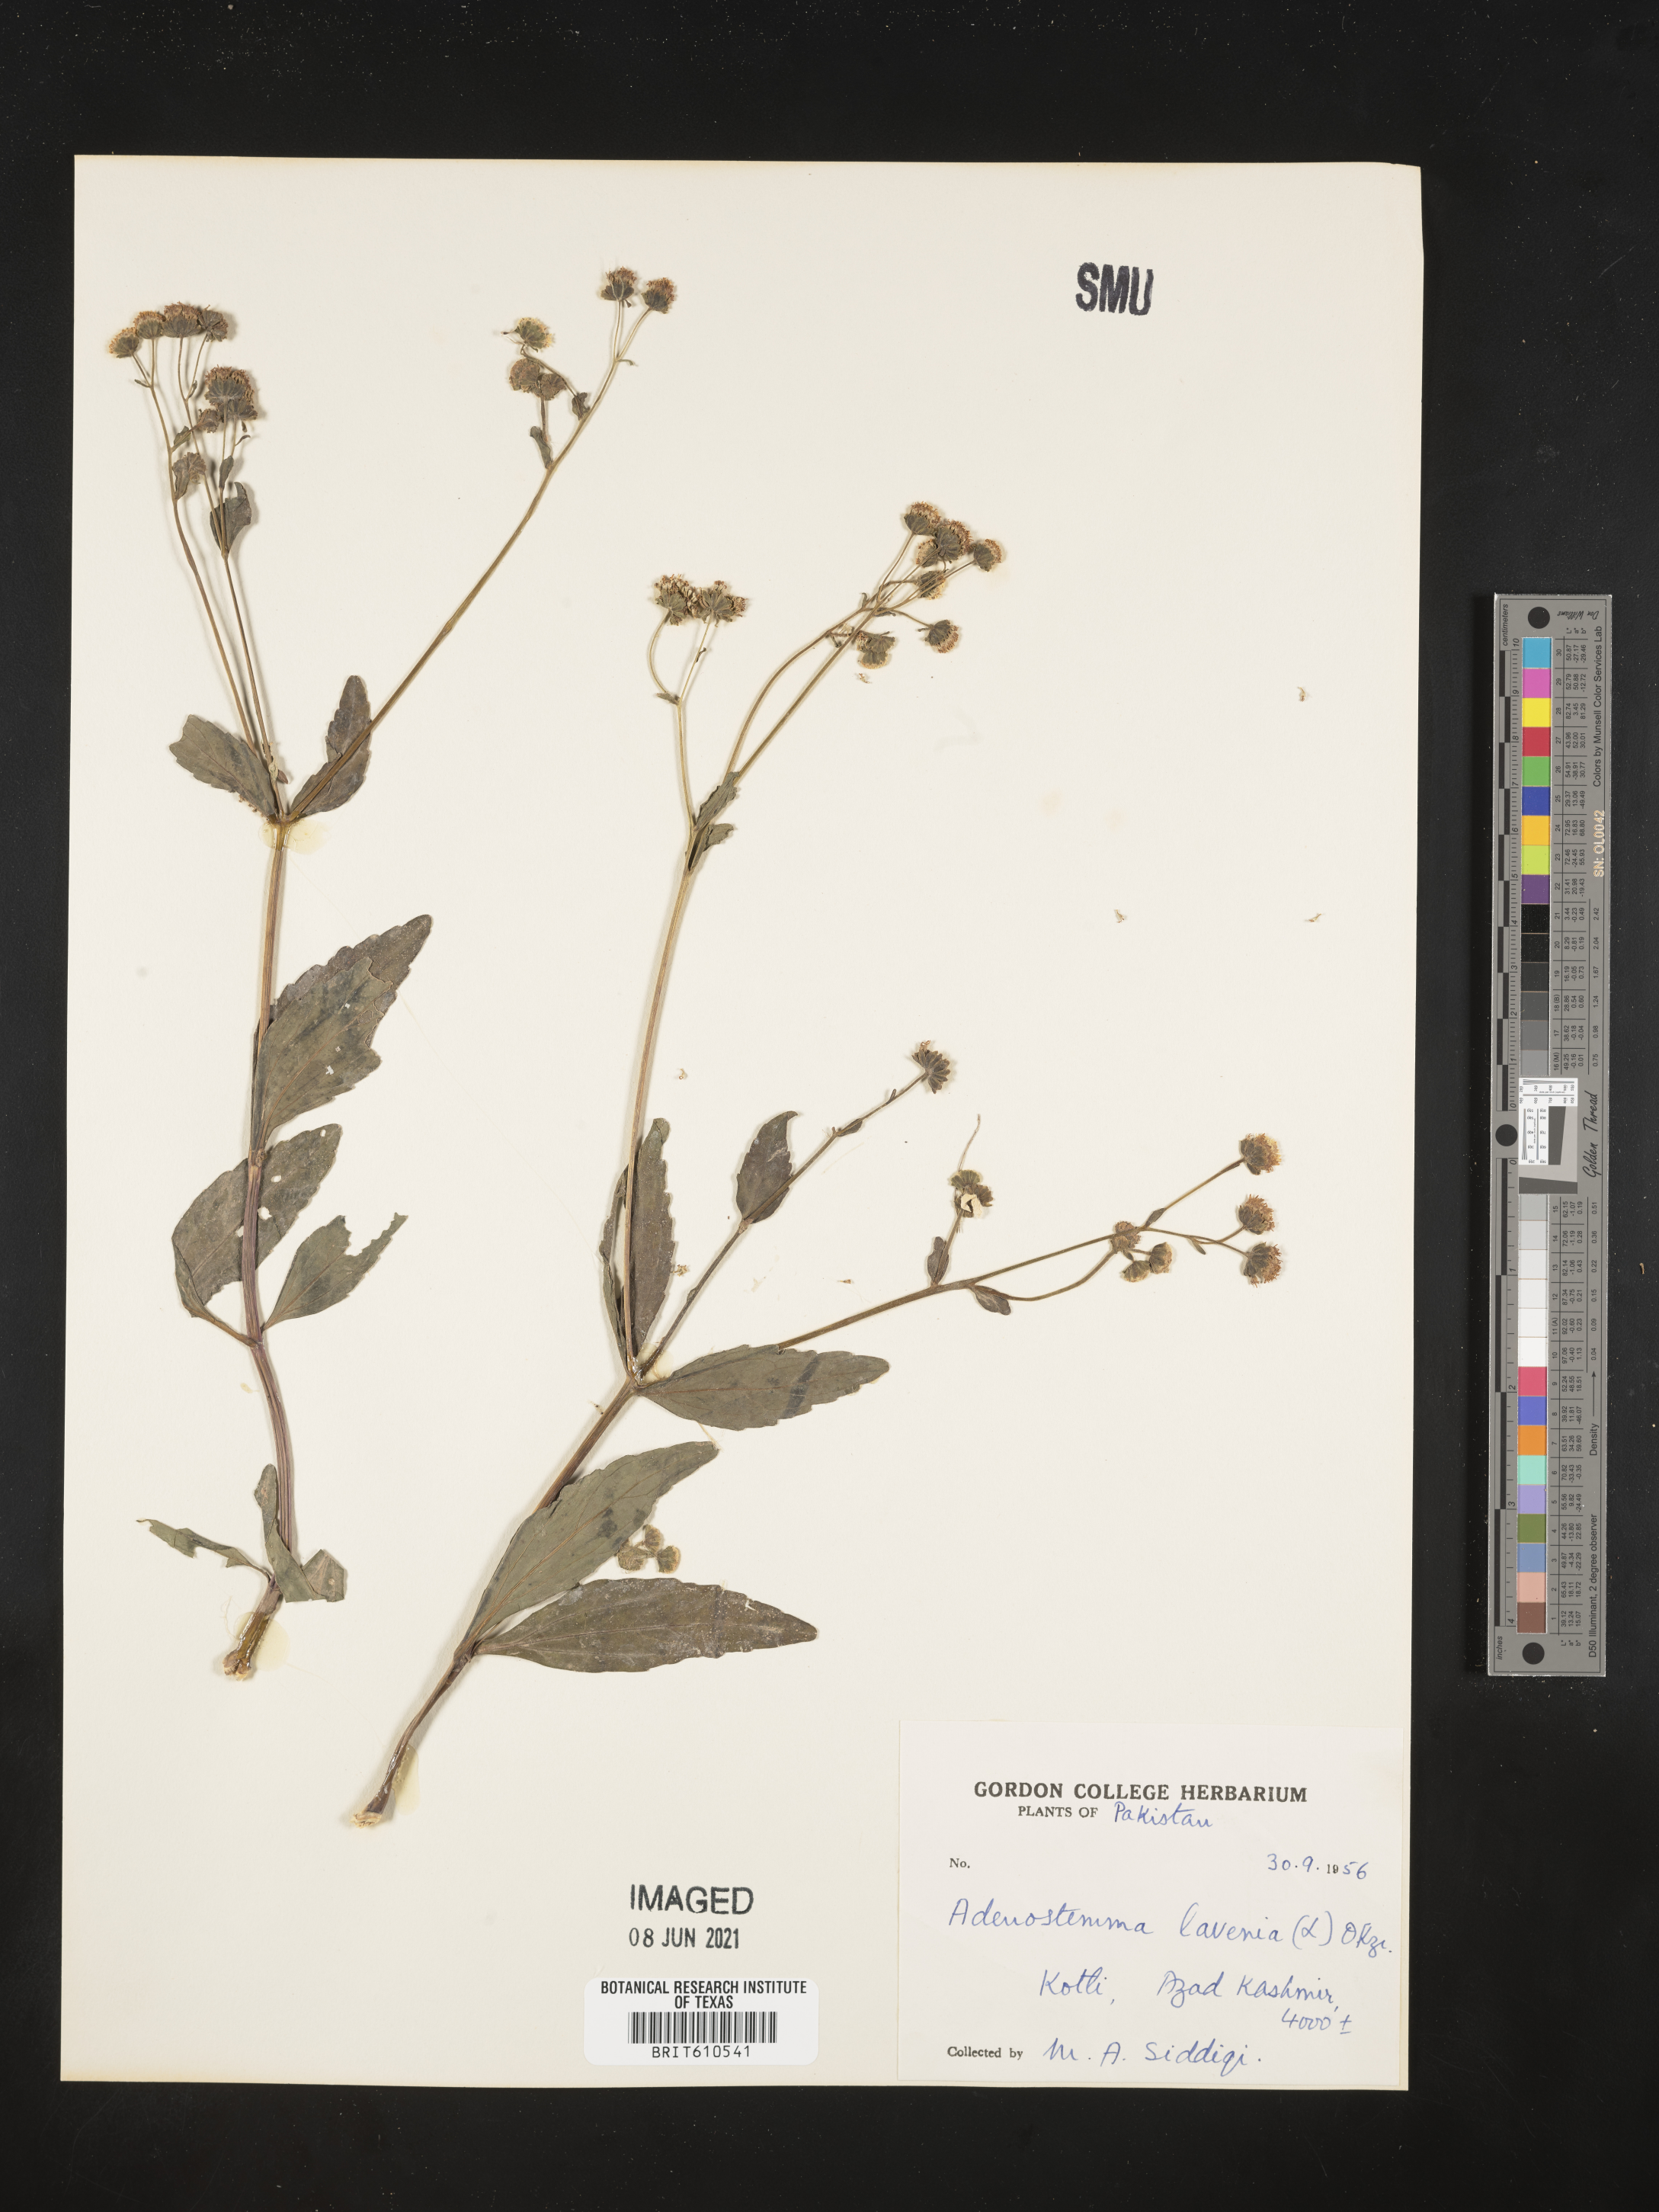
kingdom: Plantae
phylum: Tracheophyta
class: Magnoliopsida
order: Asterales
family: Asteraceae
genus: Adenostemma
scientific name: Adenostemma lavenia
